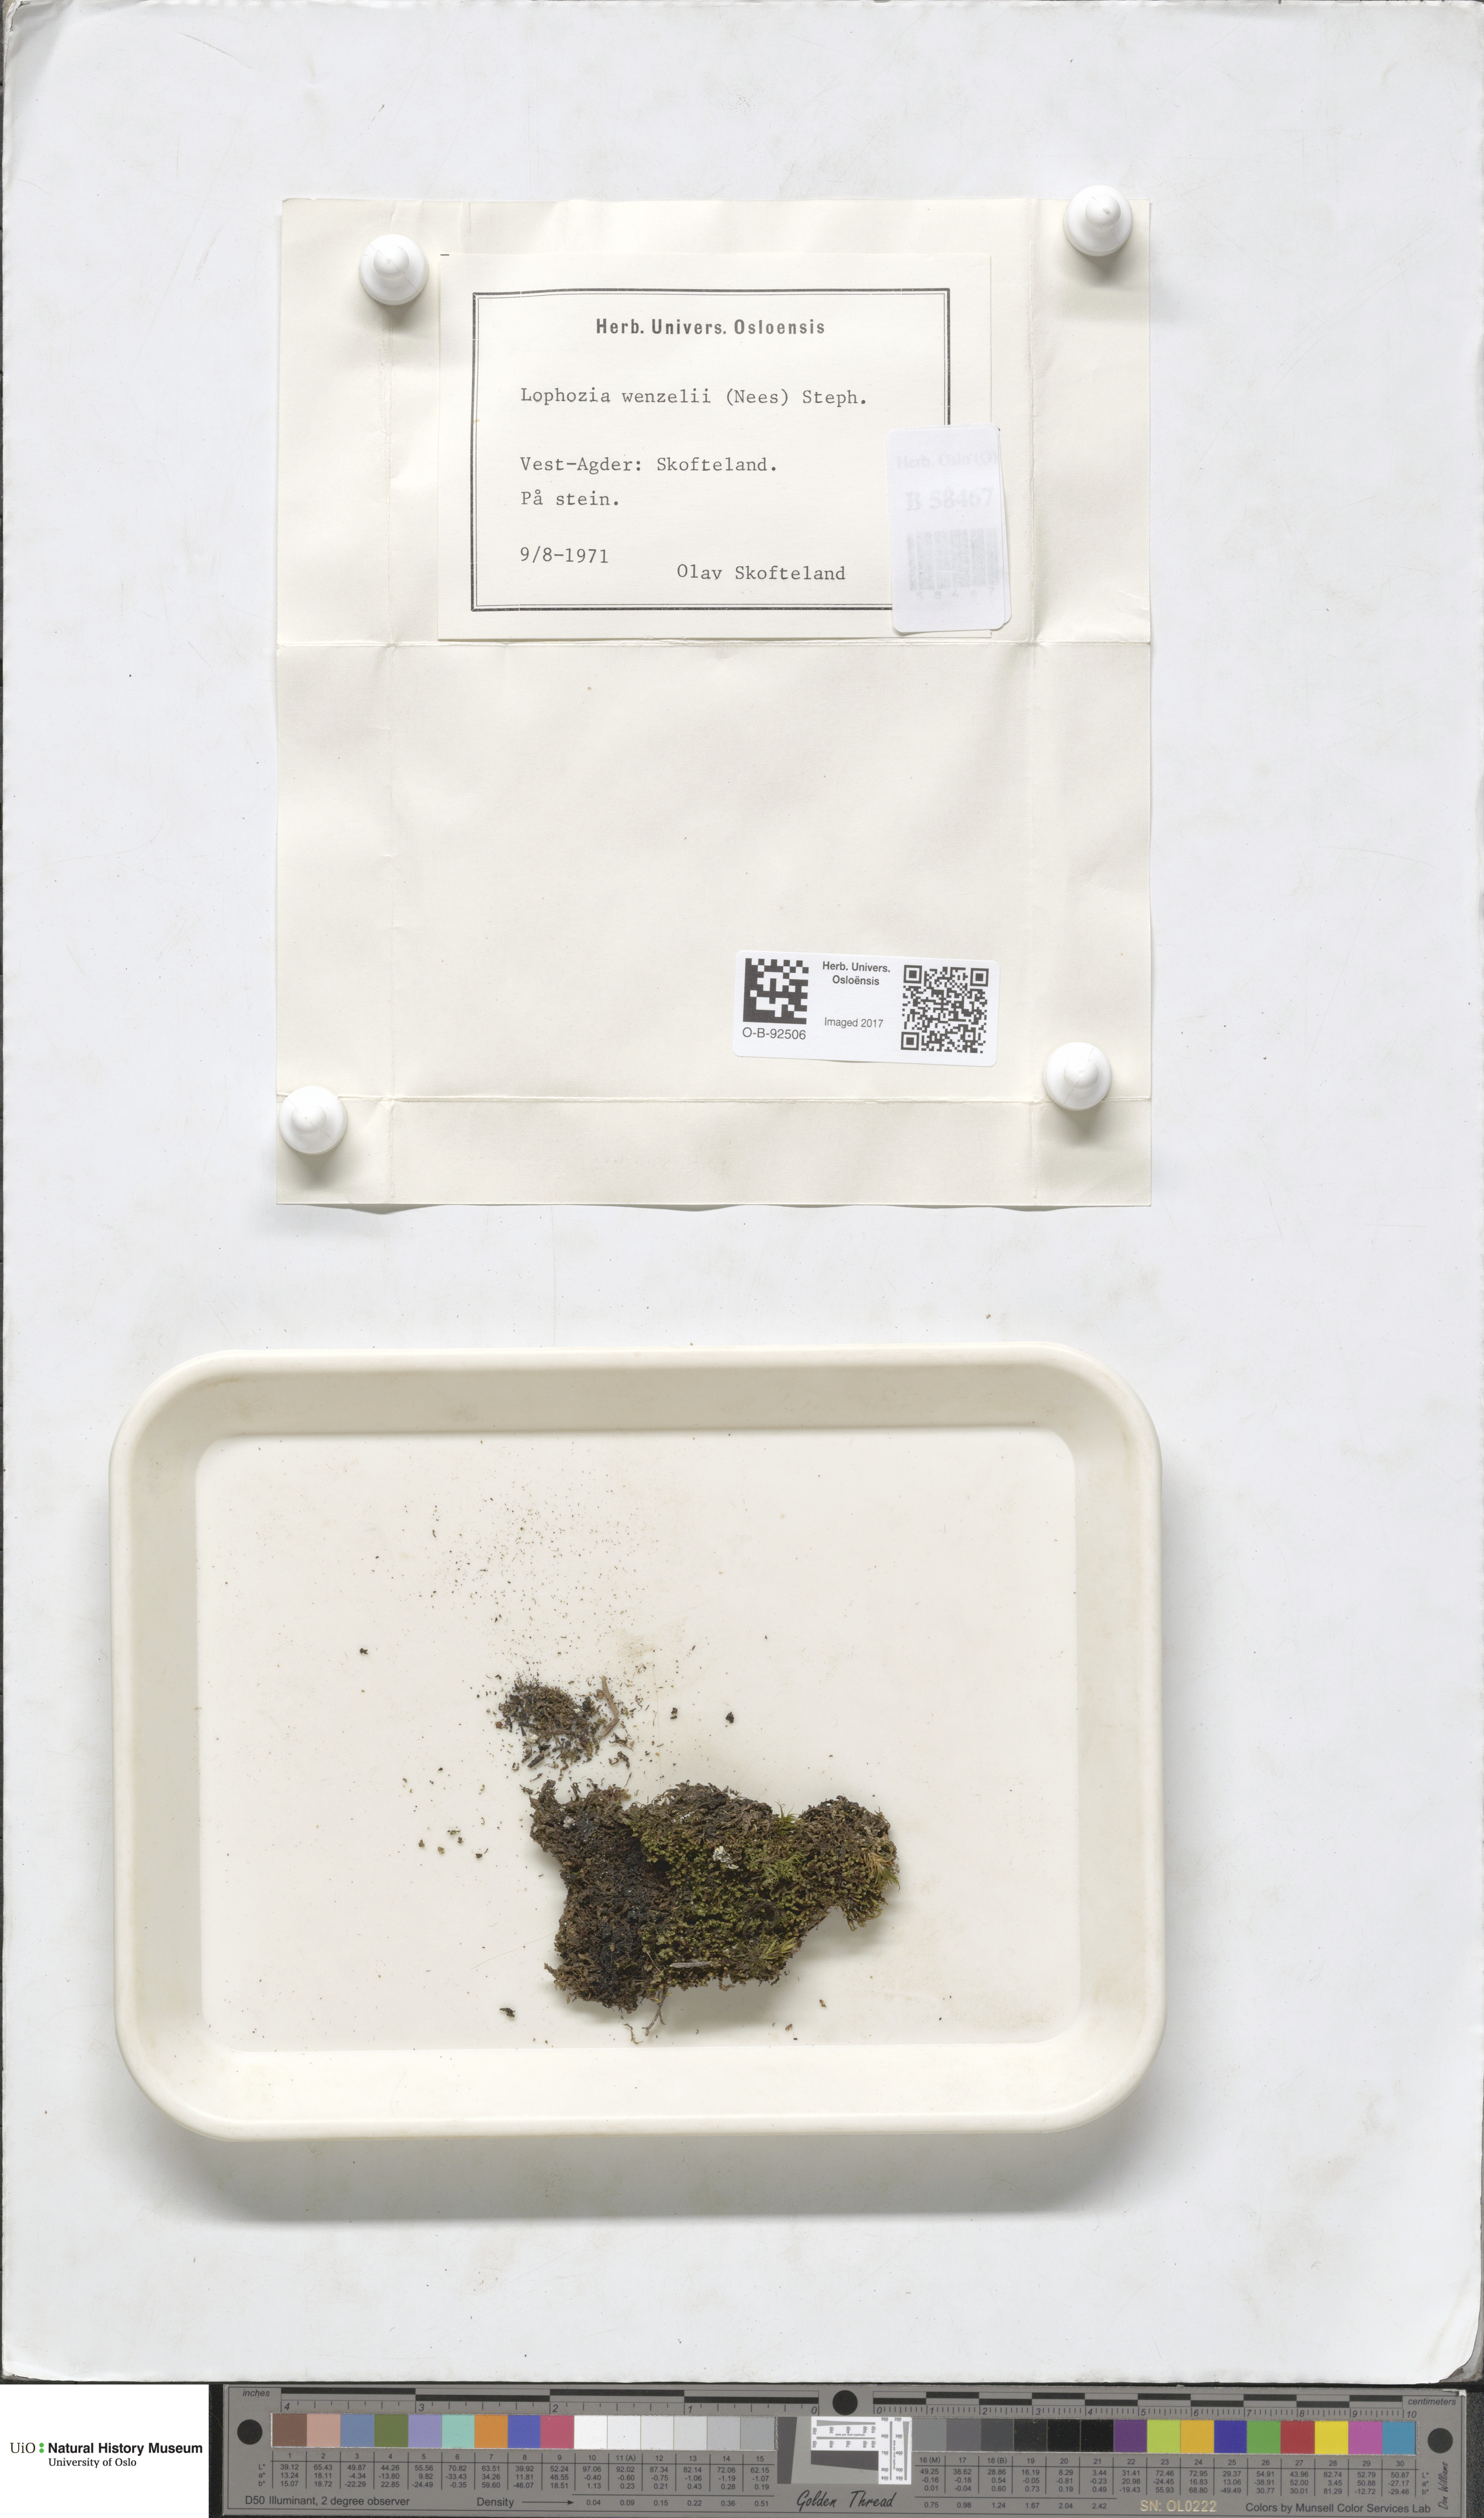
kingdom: Plantae
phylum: Marchantiophyta
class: Jungermanniopsida
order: Jungermanniales
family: Lophoziaceae
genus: Lophozia
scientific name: Lophozia wenzelii
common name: Wenzel s notchwort
